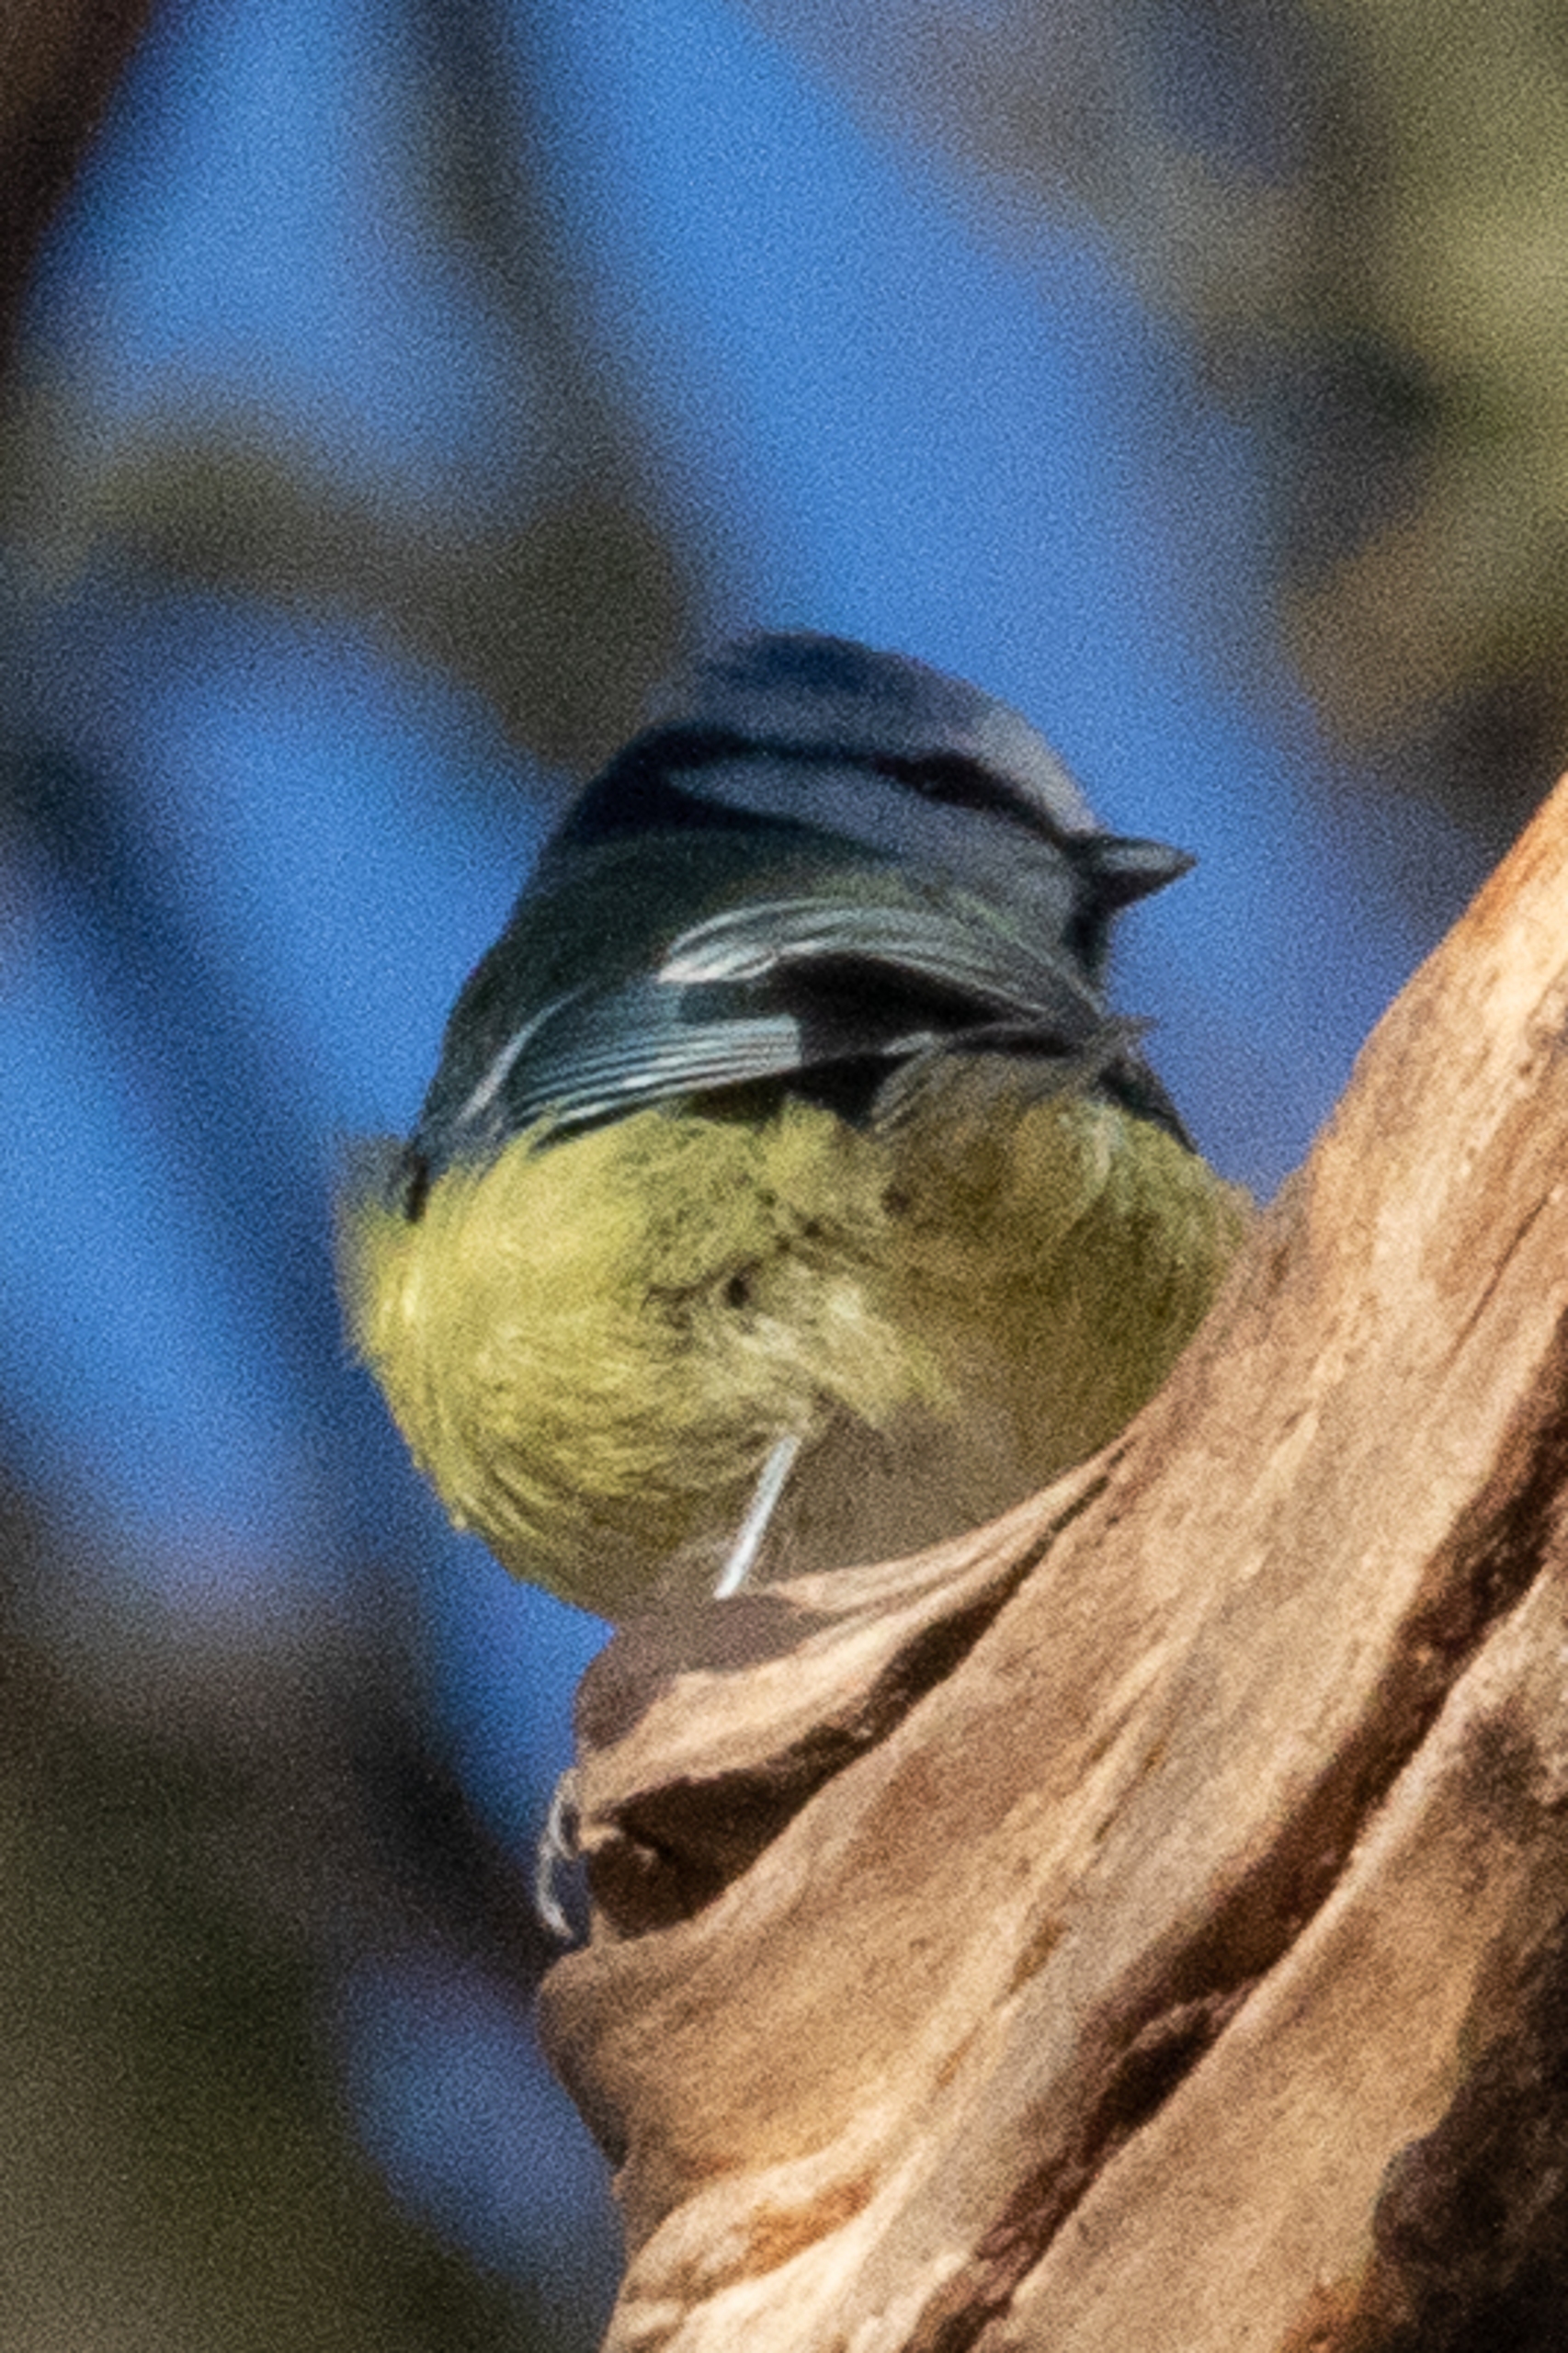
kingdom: Animalia
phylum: Chordata
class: Aves
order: Passeriformes
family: Paridae
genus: Cyanistes
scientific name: Cyanistes caeruleus
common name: Blåmejse
